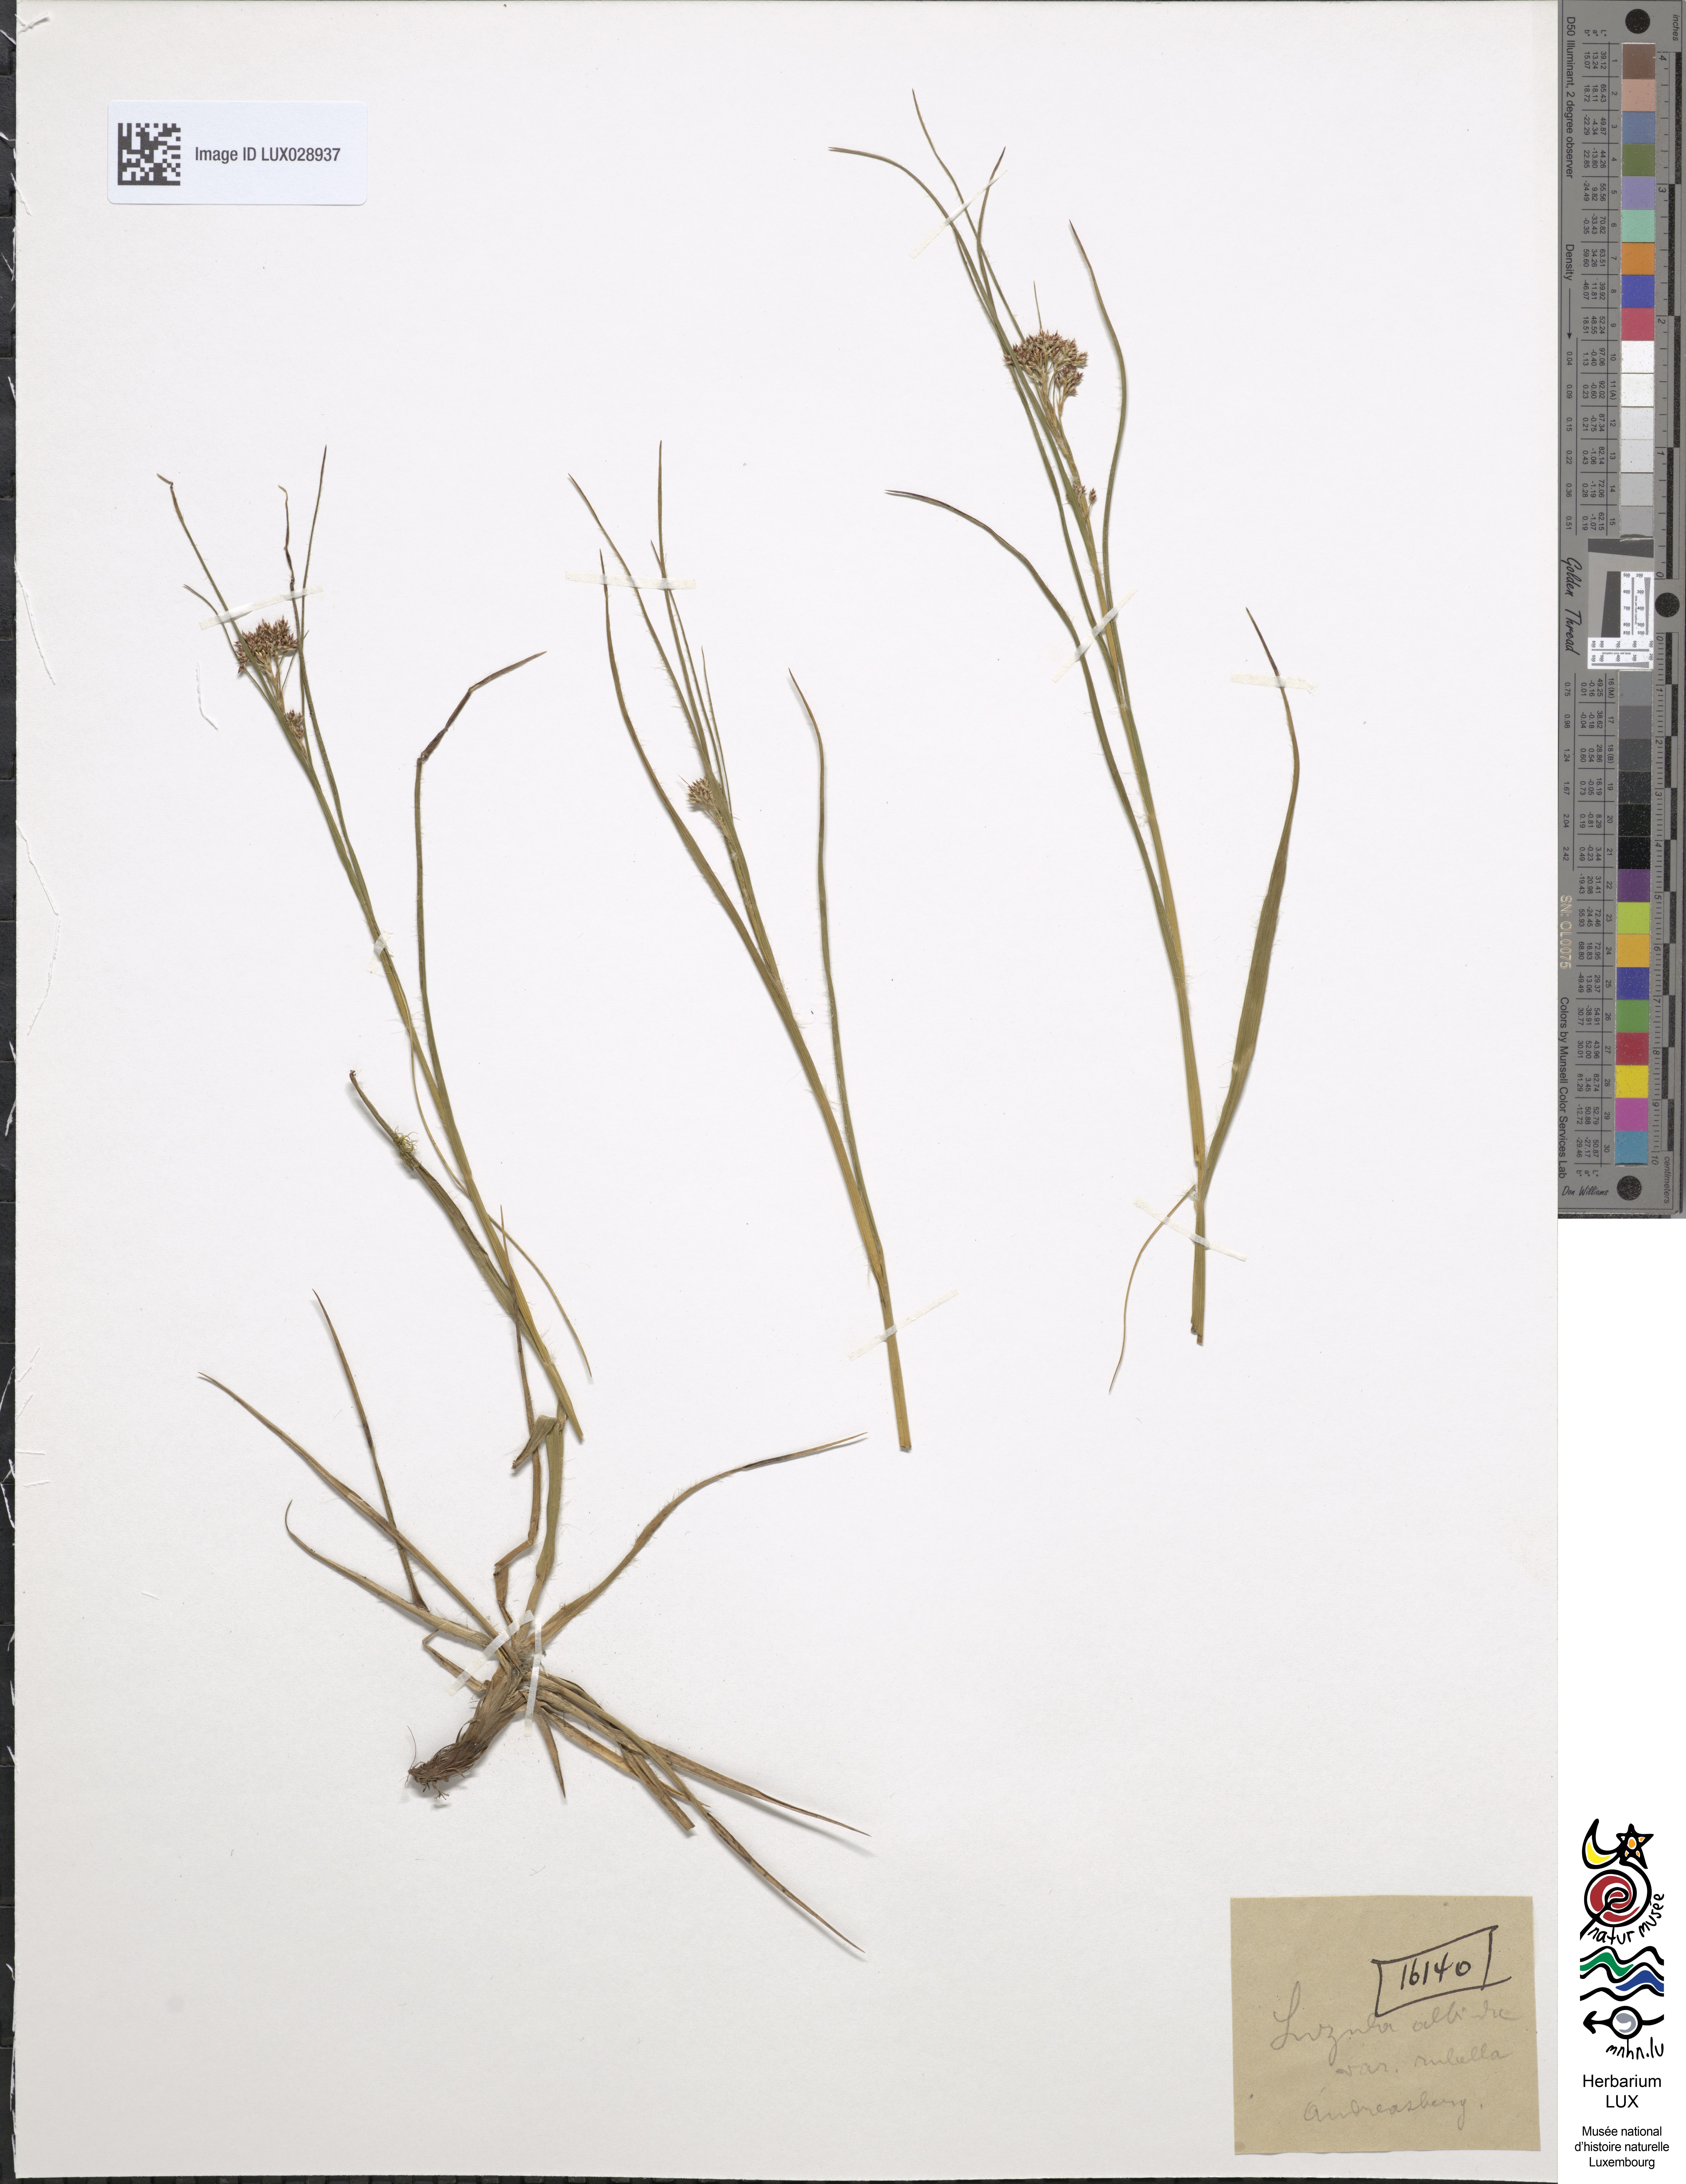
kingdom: Plantae
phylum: Tracheophyta
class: Liliopsida
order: Poales
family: Juncaceae
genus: Luzula
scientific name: Luzula luzuloides
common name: White wood-rush
